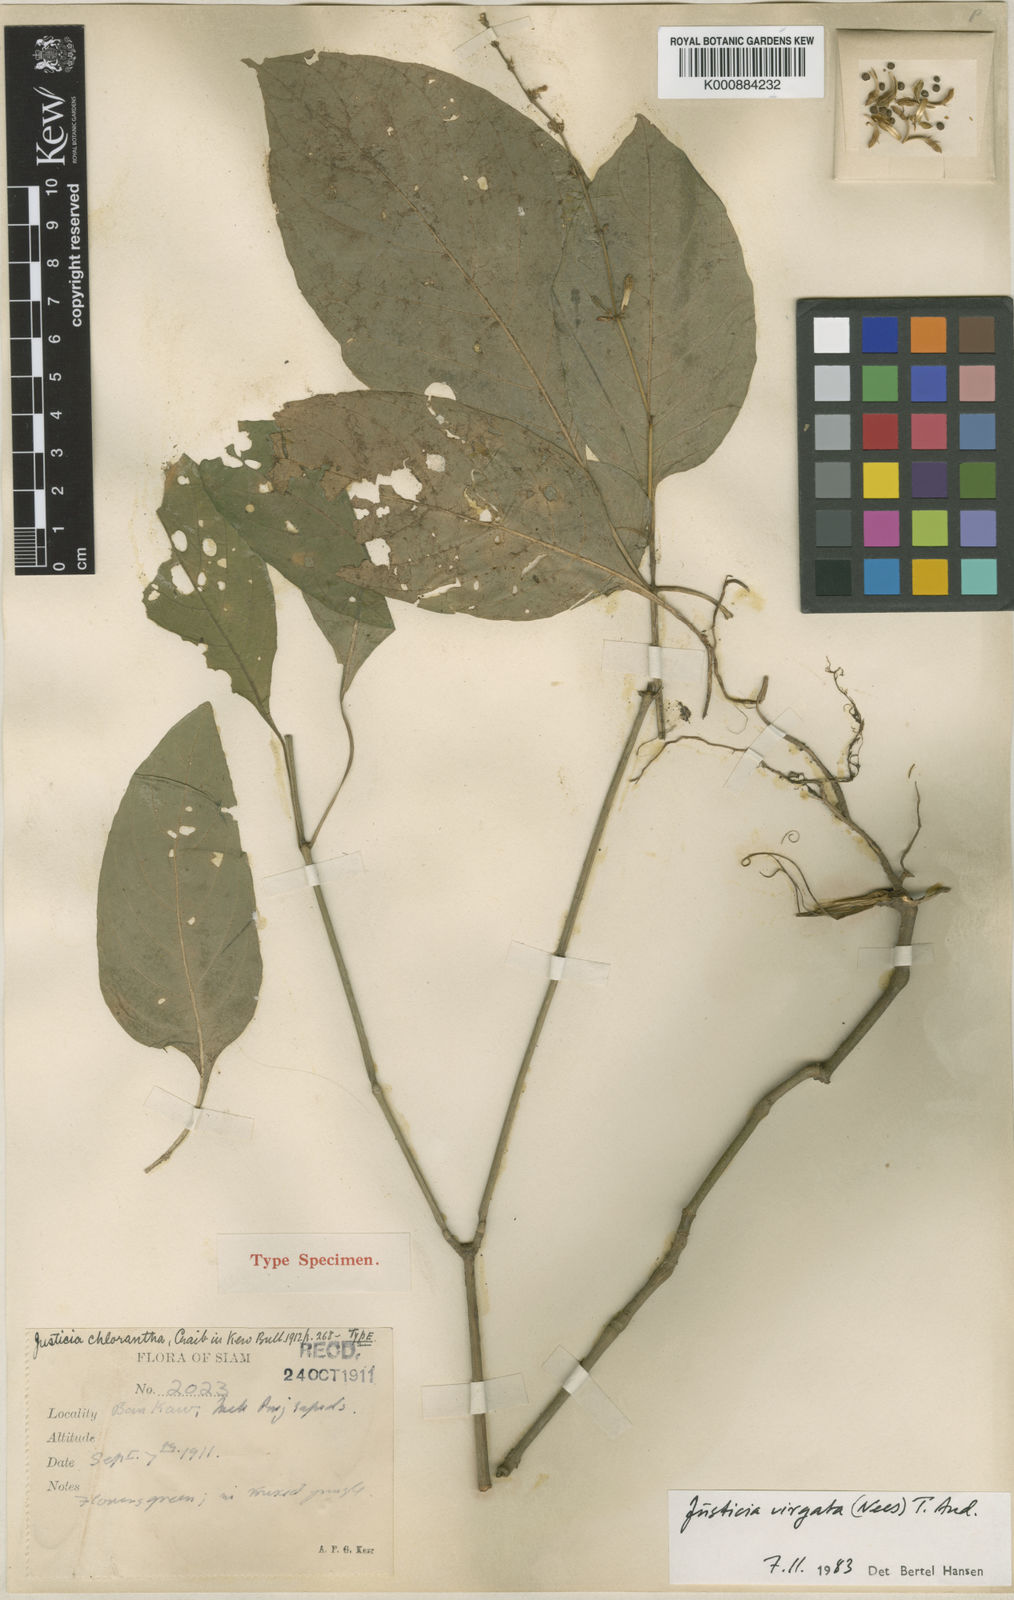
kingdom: Plantae
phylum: Tracheophyta
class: Magnoliopsida
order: Lamiales
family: Acanthaceae
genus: Justicia
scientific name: Justicia virgata
